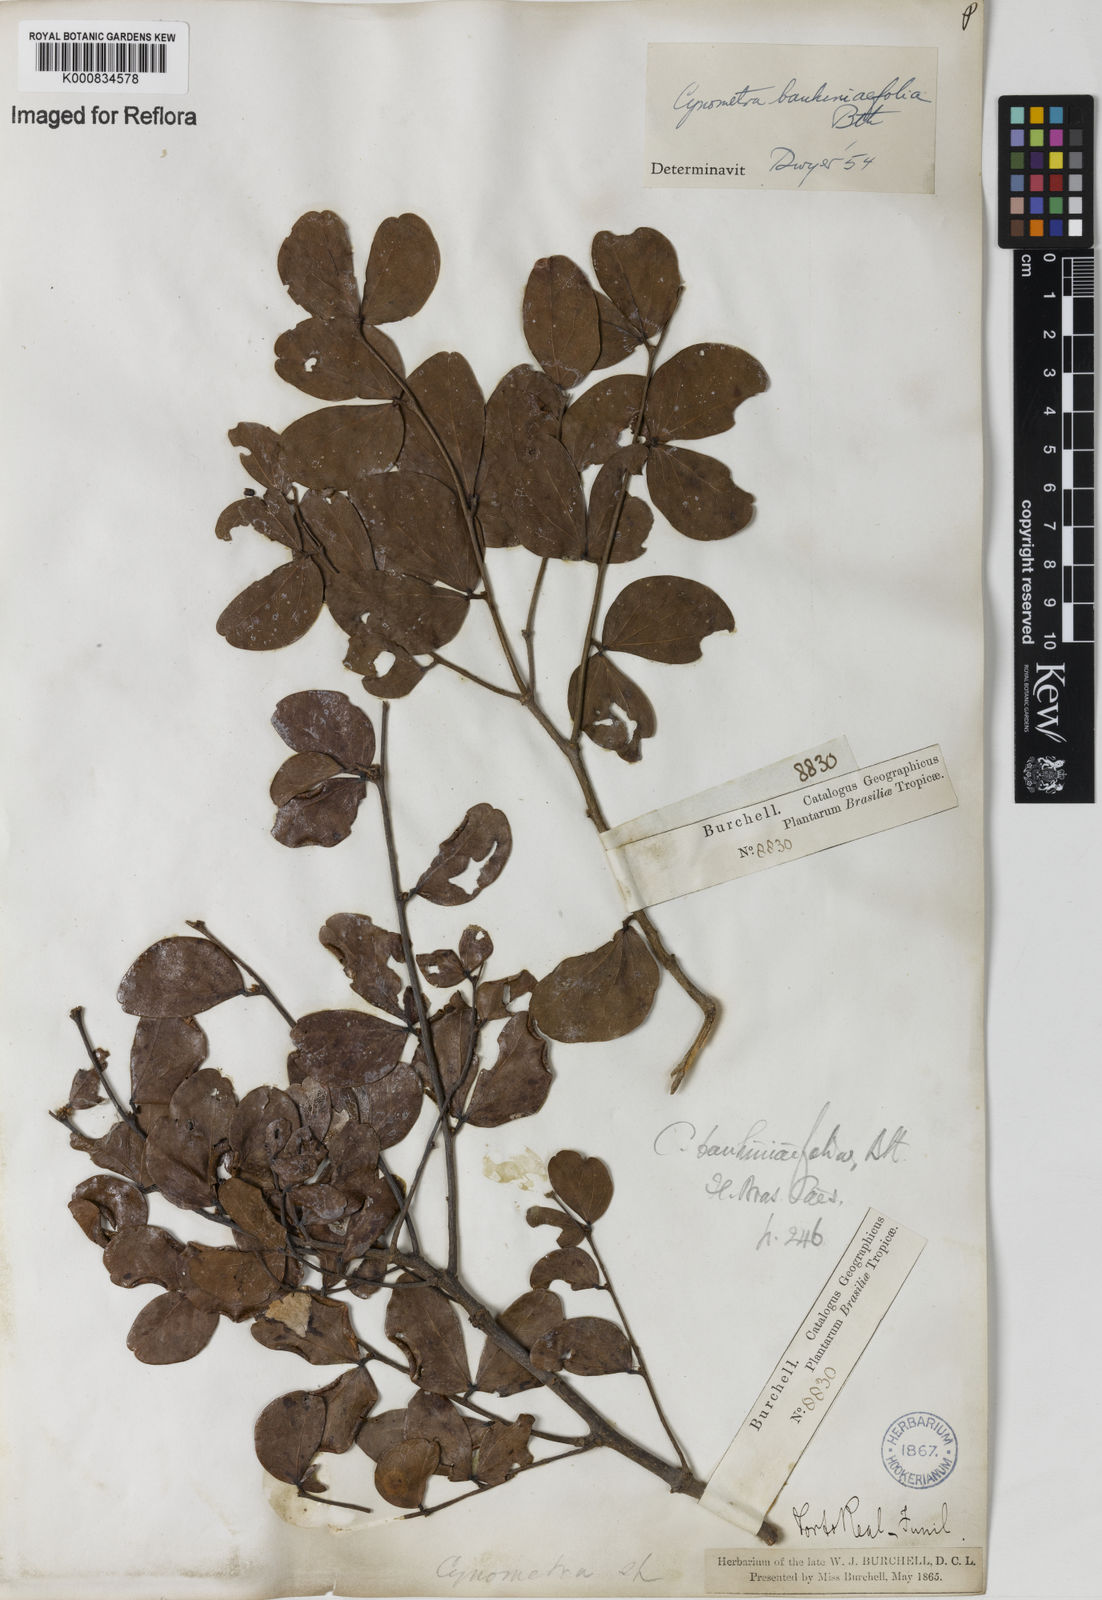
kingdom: Plantae
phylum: Tracheophyta
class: Magnoliopsida
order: Fabales
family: Fabaceae
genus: Cynometra
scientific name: Cynometra bauhiniifolia
